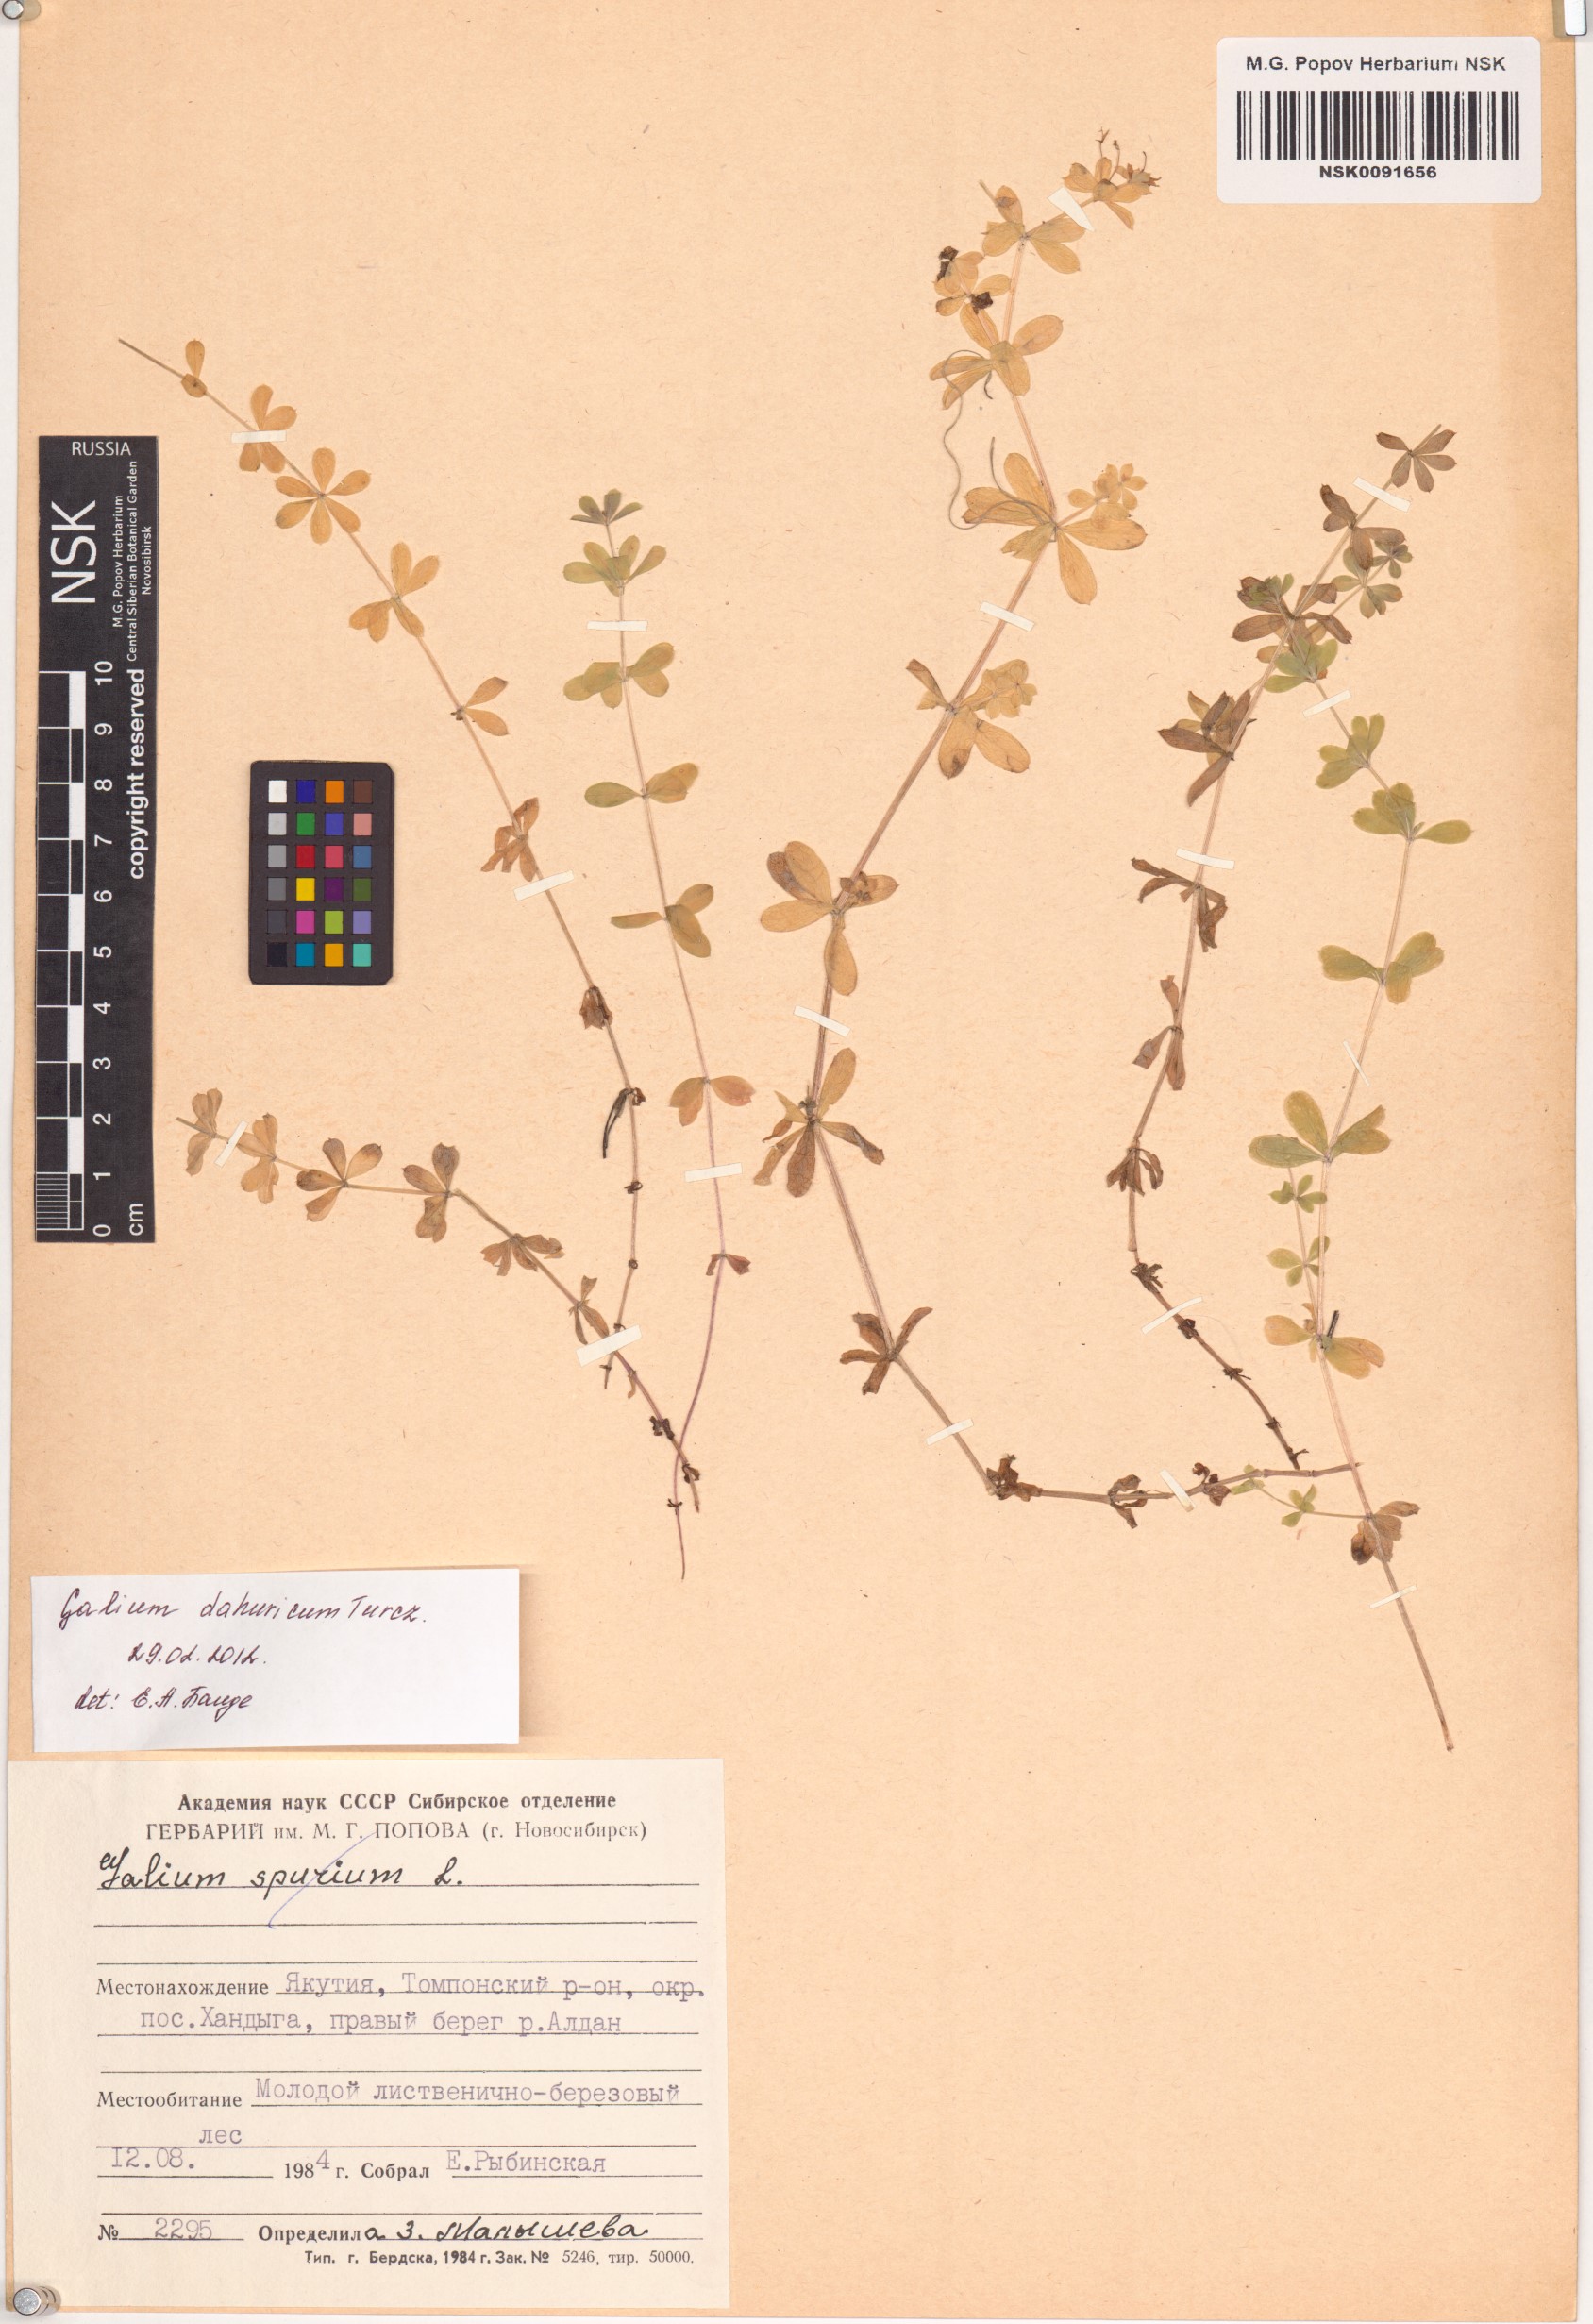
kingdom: Plantae
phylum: Tracheophyta
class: Magnoliopsida
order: Gentianales
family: Rubiaceae
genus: Galium
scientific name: Galium dahuricum
